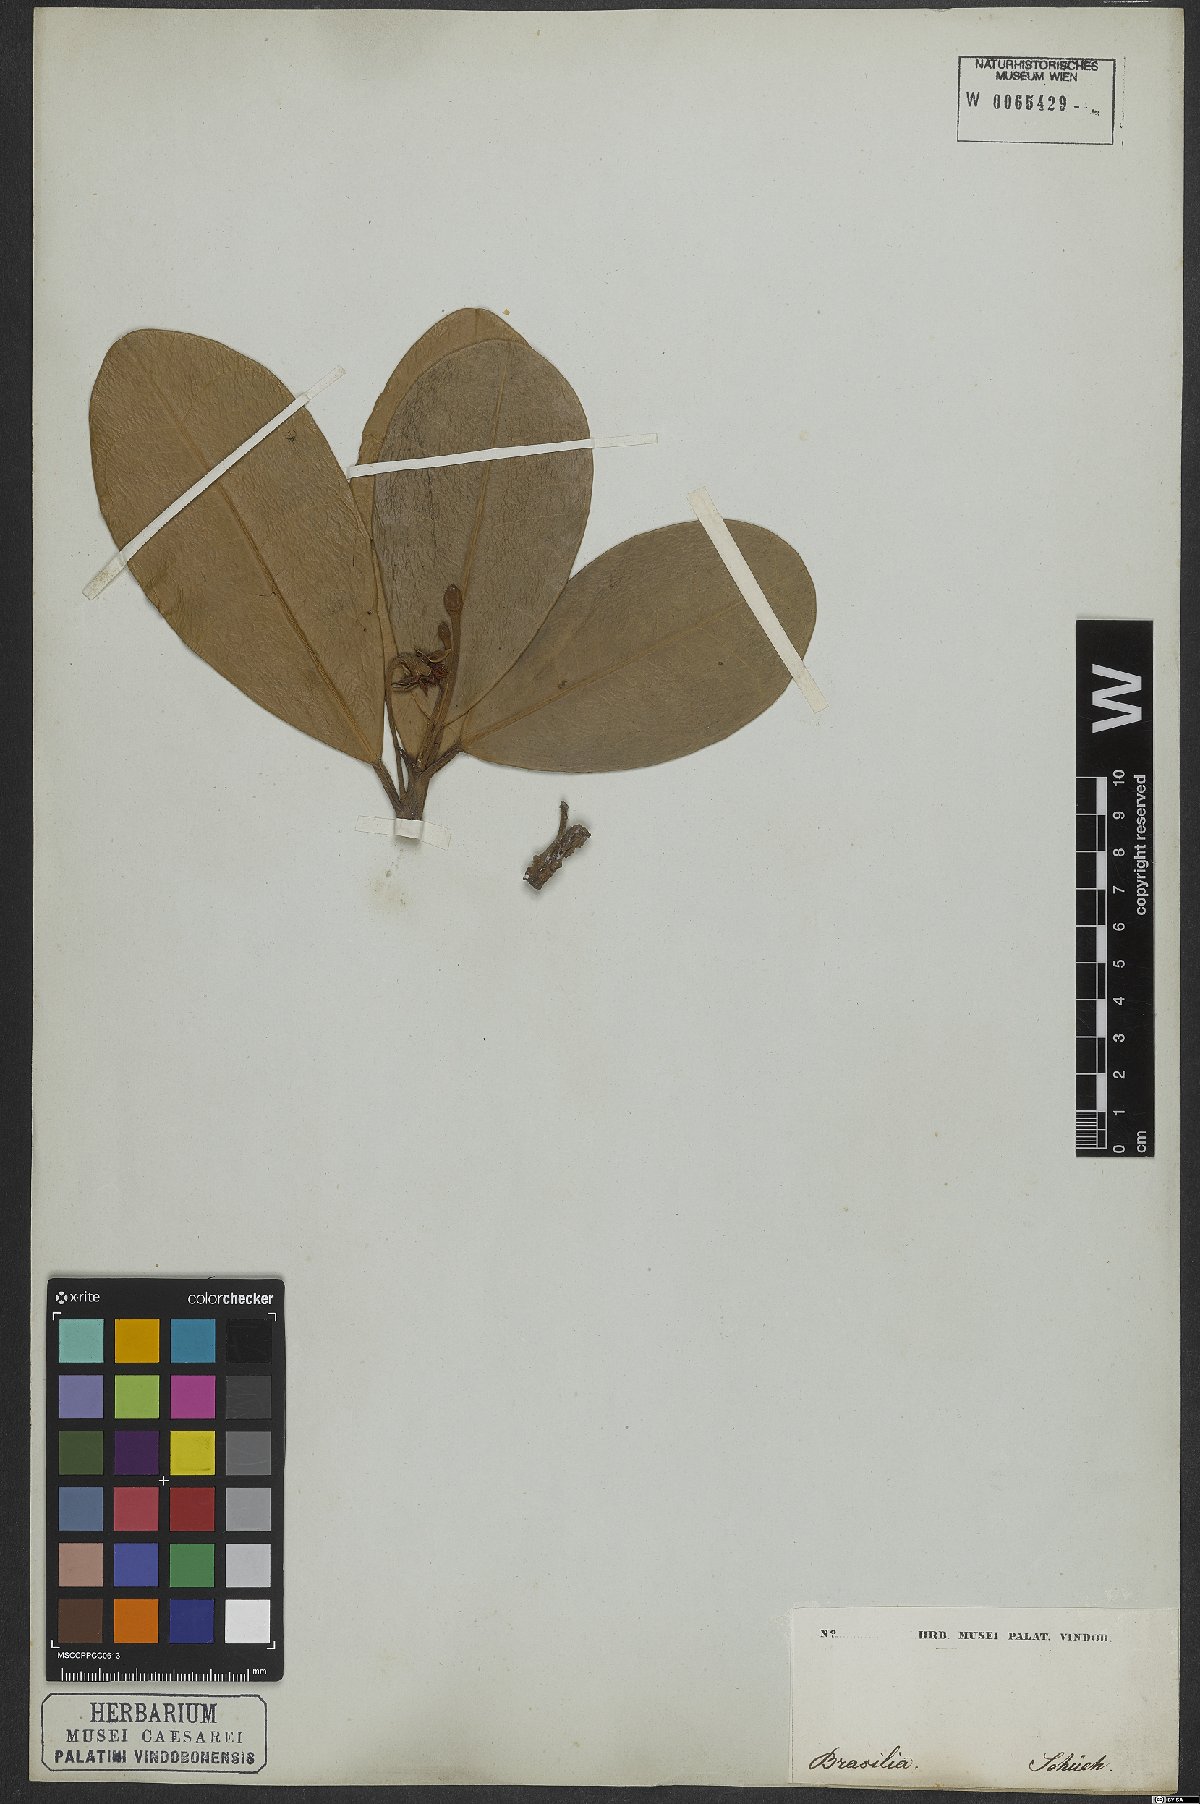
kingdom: Plantae
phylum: Tracheophyta
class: Magnoliopsida
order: Ericales
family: Sapotaceae
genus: Mimusops
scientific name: Mimusops petiolaris
